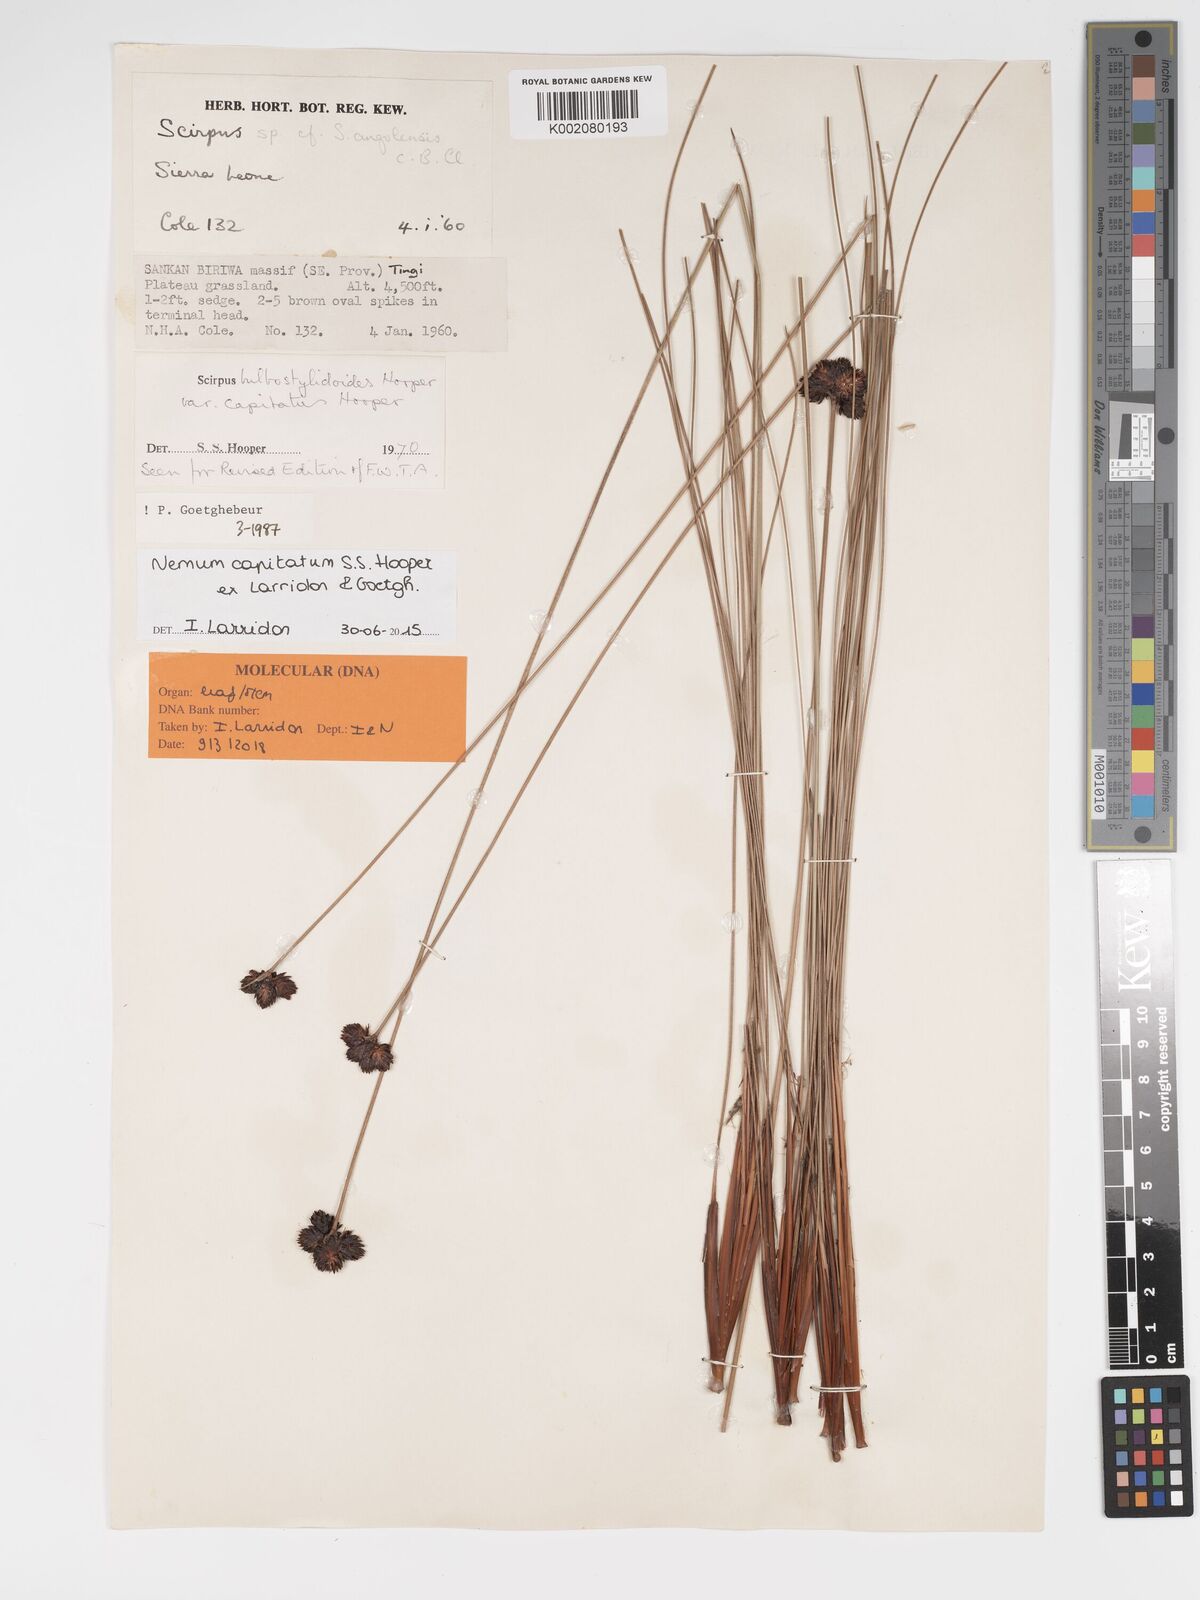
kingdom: Plantae
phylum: Tracheophyta
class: Liliopsida
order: Poales
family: Cyperaceae
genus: Bulbostylis
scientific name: Bulbostylis neocapitata
